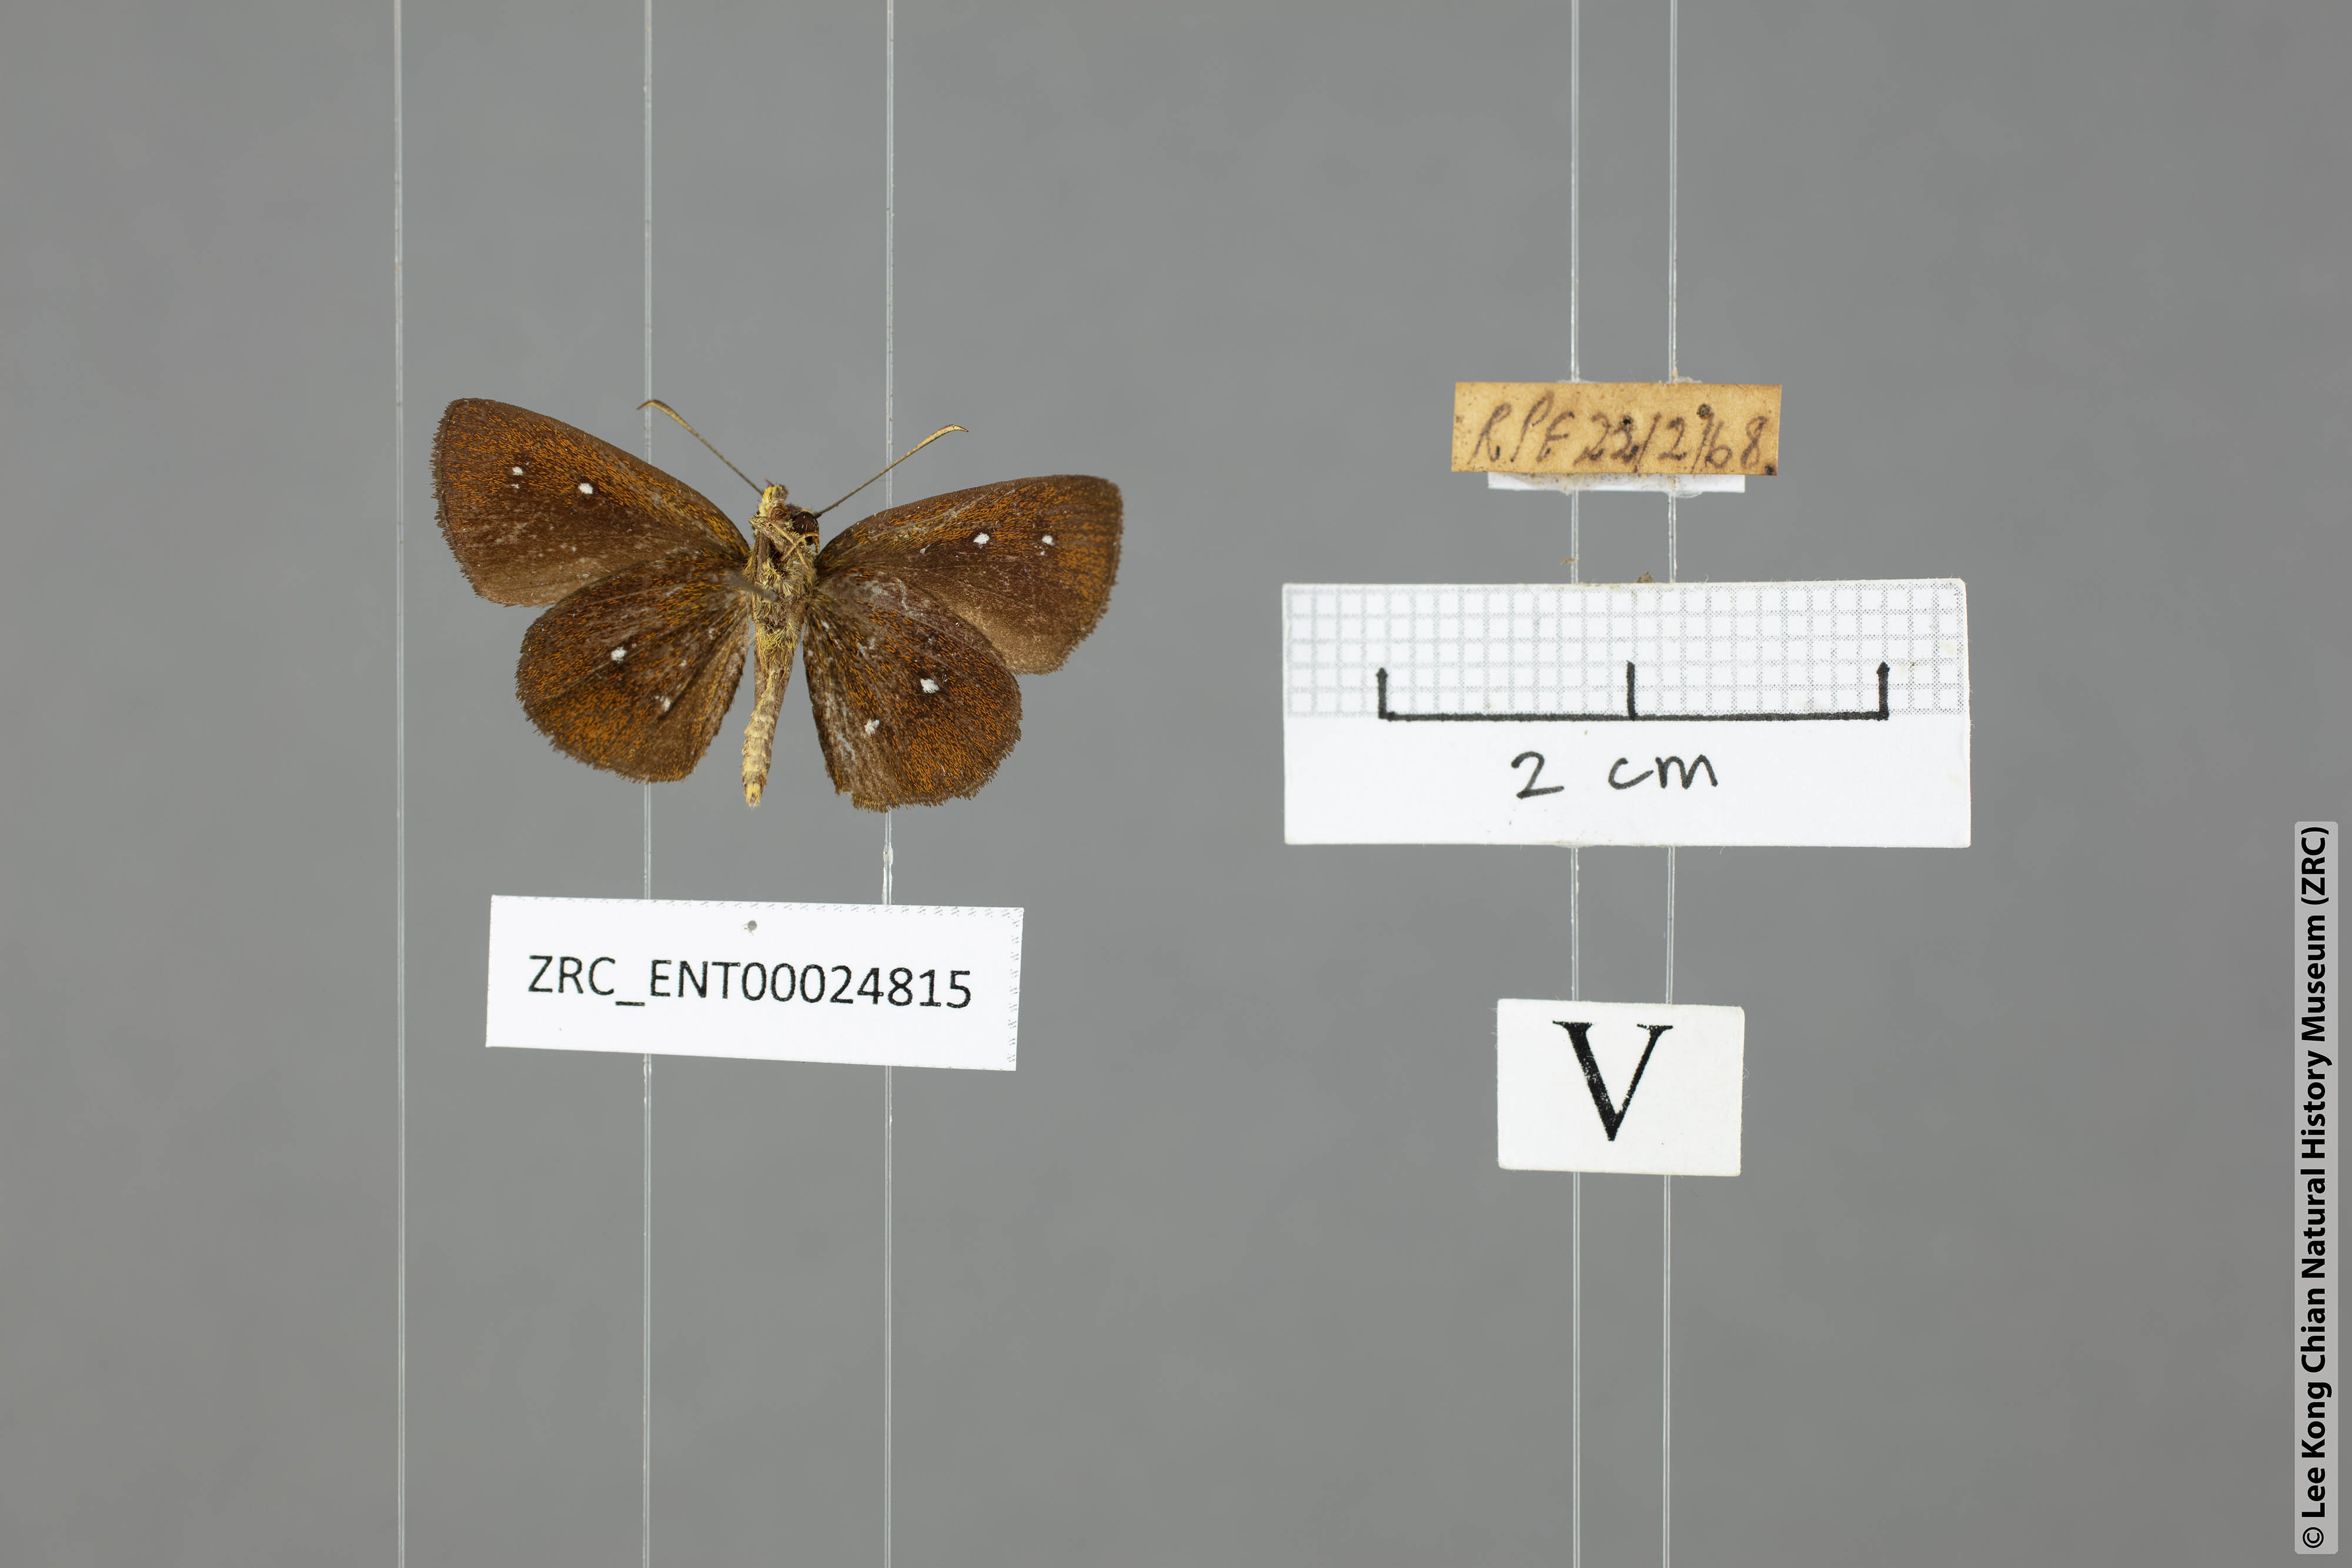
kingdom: Animalia
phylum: Arthropoda
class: Insecta
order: Lepidoptera
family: Hesperiidae
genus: Iambrix
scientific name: Iambrix salsala
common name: Chestnut bob
